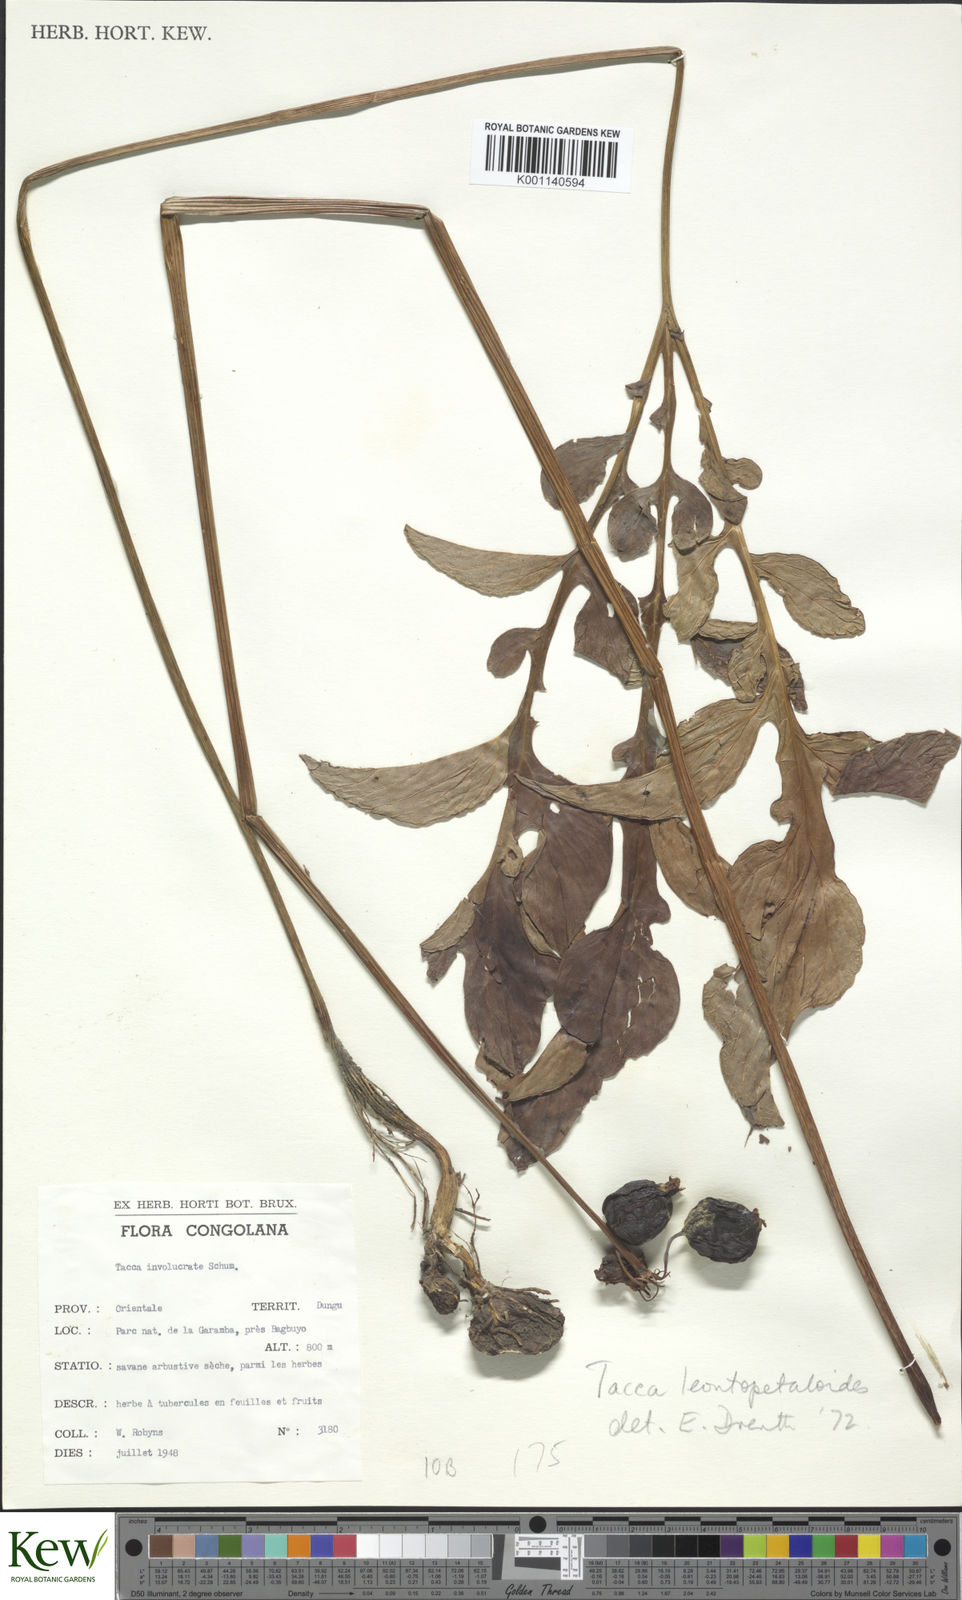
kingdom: Plantae
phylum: Tracheophyta
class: Liliopsida
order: Dioscoreales
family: Dioscoreaceae
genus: Tacca
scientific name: Tacca leontopetaloides
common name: Arrowroot
